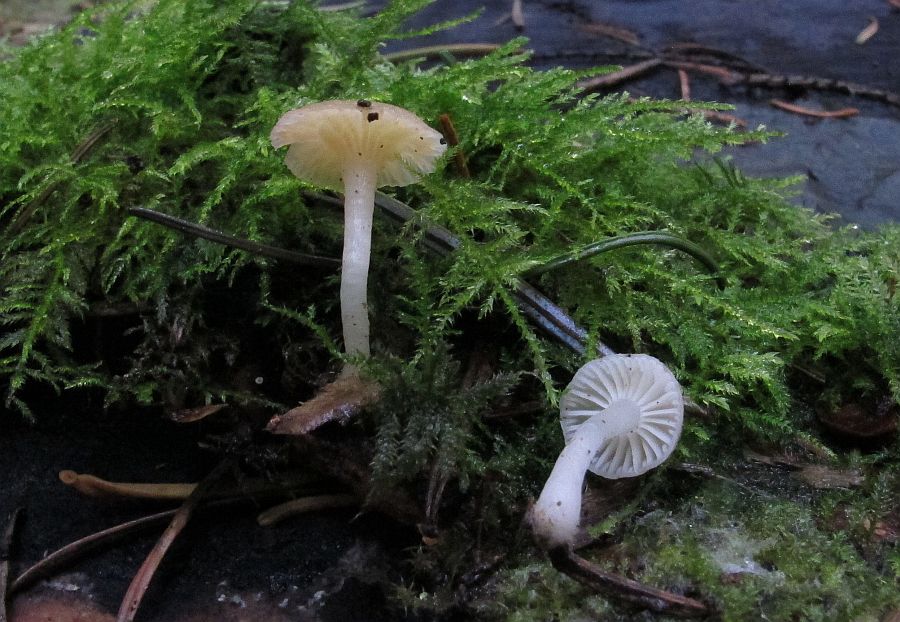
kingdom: Fungi
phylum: Basidiomycota
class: Agaricomycetes
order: Agaricales
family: Hygrophoraceae
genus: Chrysomphalina
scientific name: Chrysomphalina grossula
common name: stød-gyldenblad
